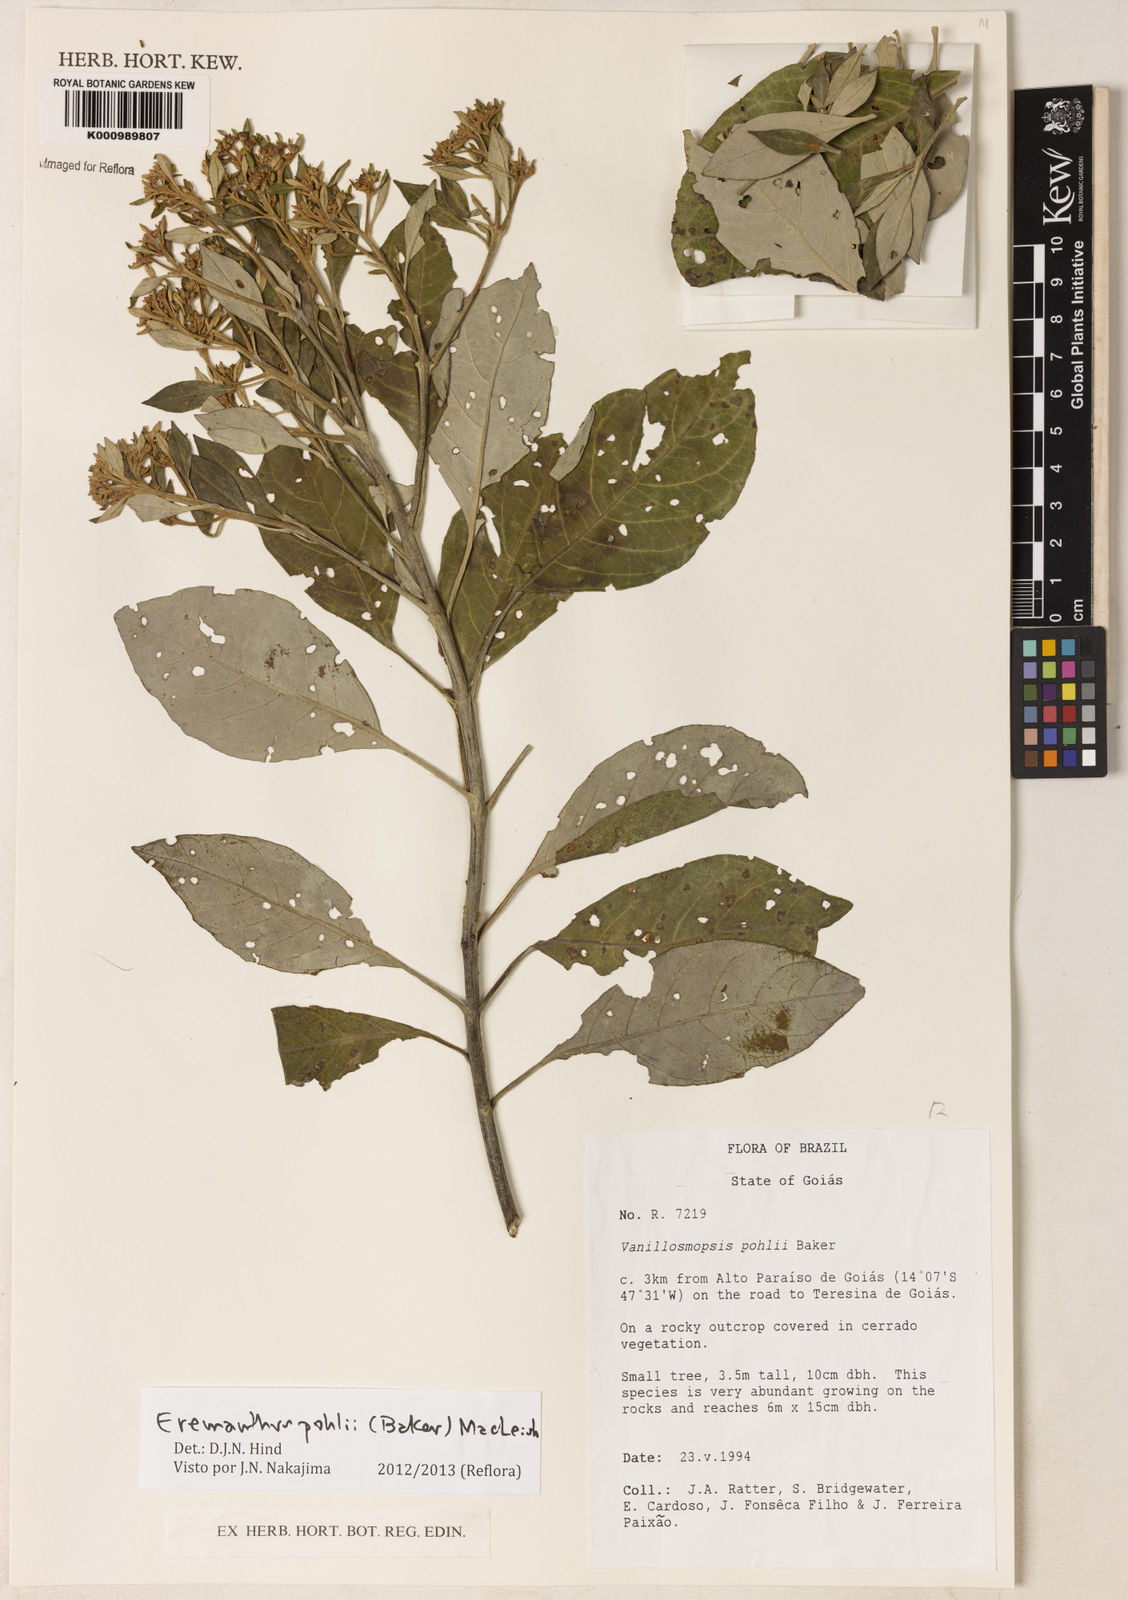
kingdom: Plantae
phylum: Tracheophyta
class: Magnoliopsida
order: Asterales
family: Asteraceae
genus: Eremanthus
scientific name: Eremanthus capitatus
